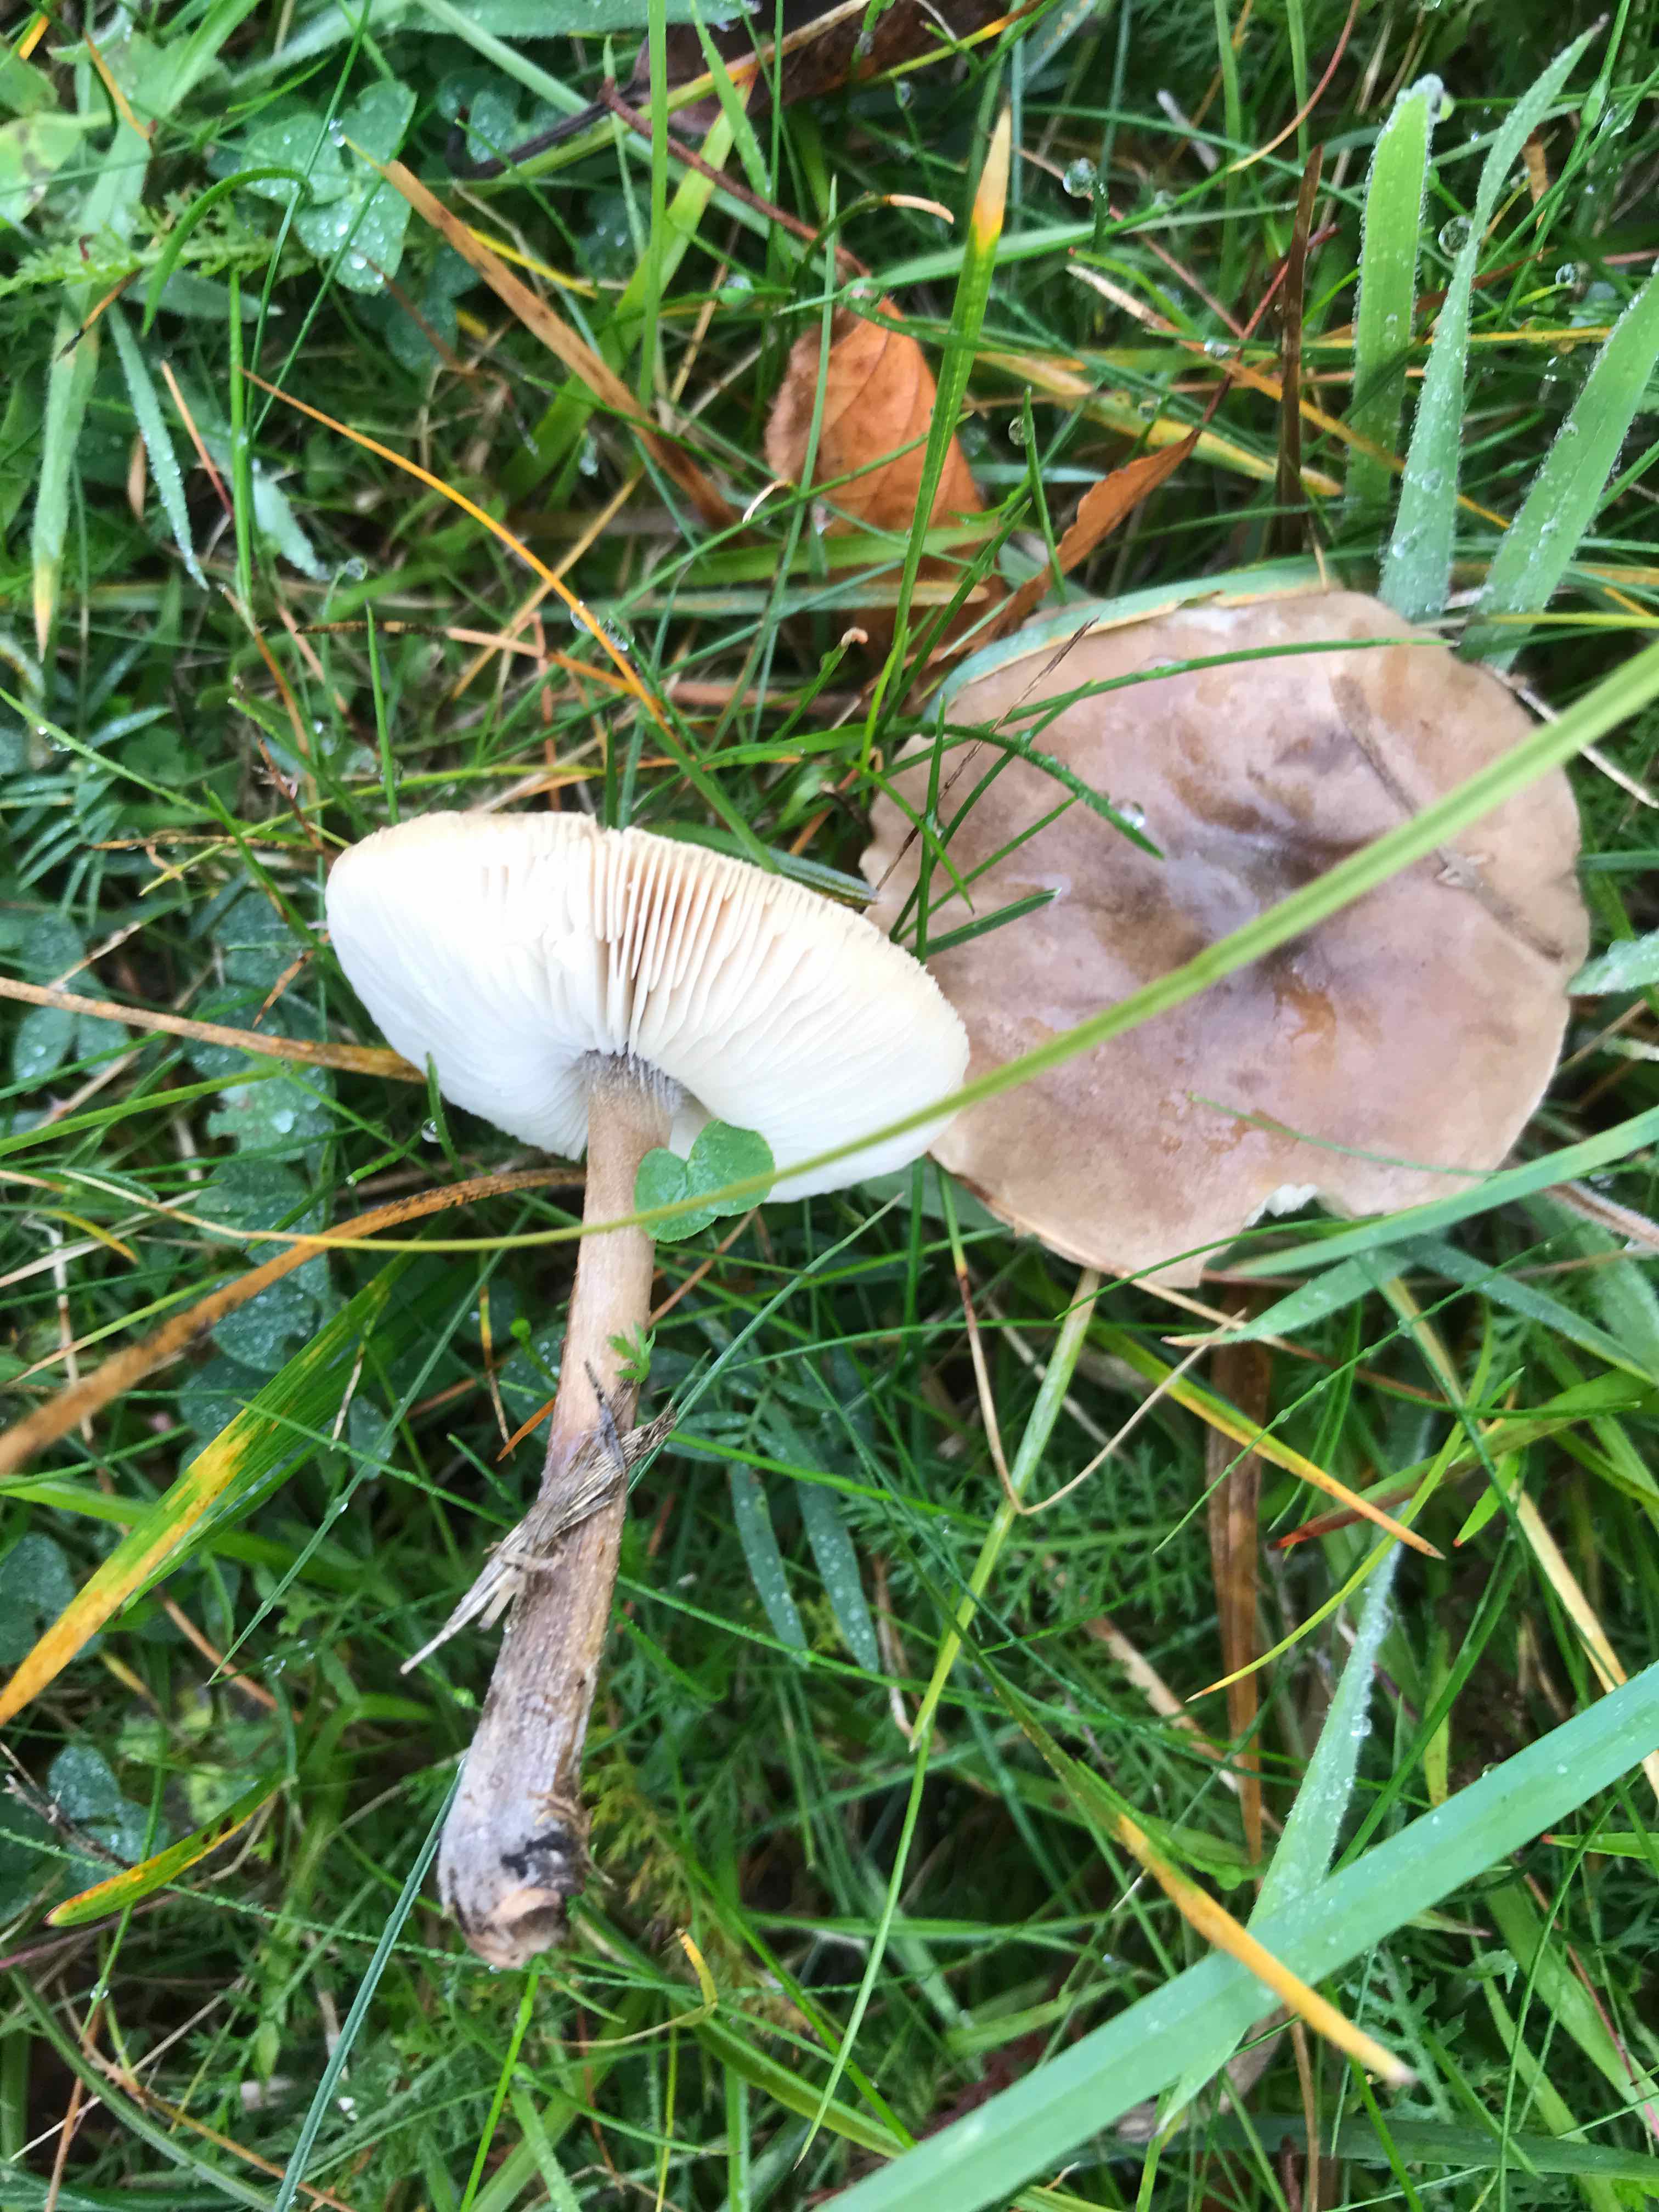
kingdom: Fungi
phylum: Basidiomycota
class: Agaricomycetes
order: Agaricales
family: Tricholomataceae
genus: Melanoleuca
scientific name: Melanoleuca
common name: munkehat
